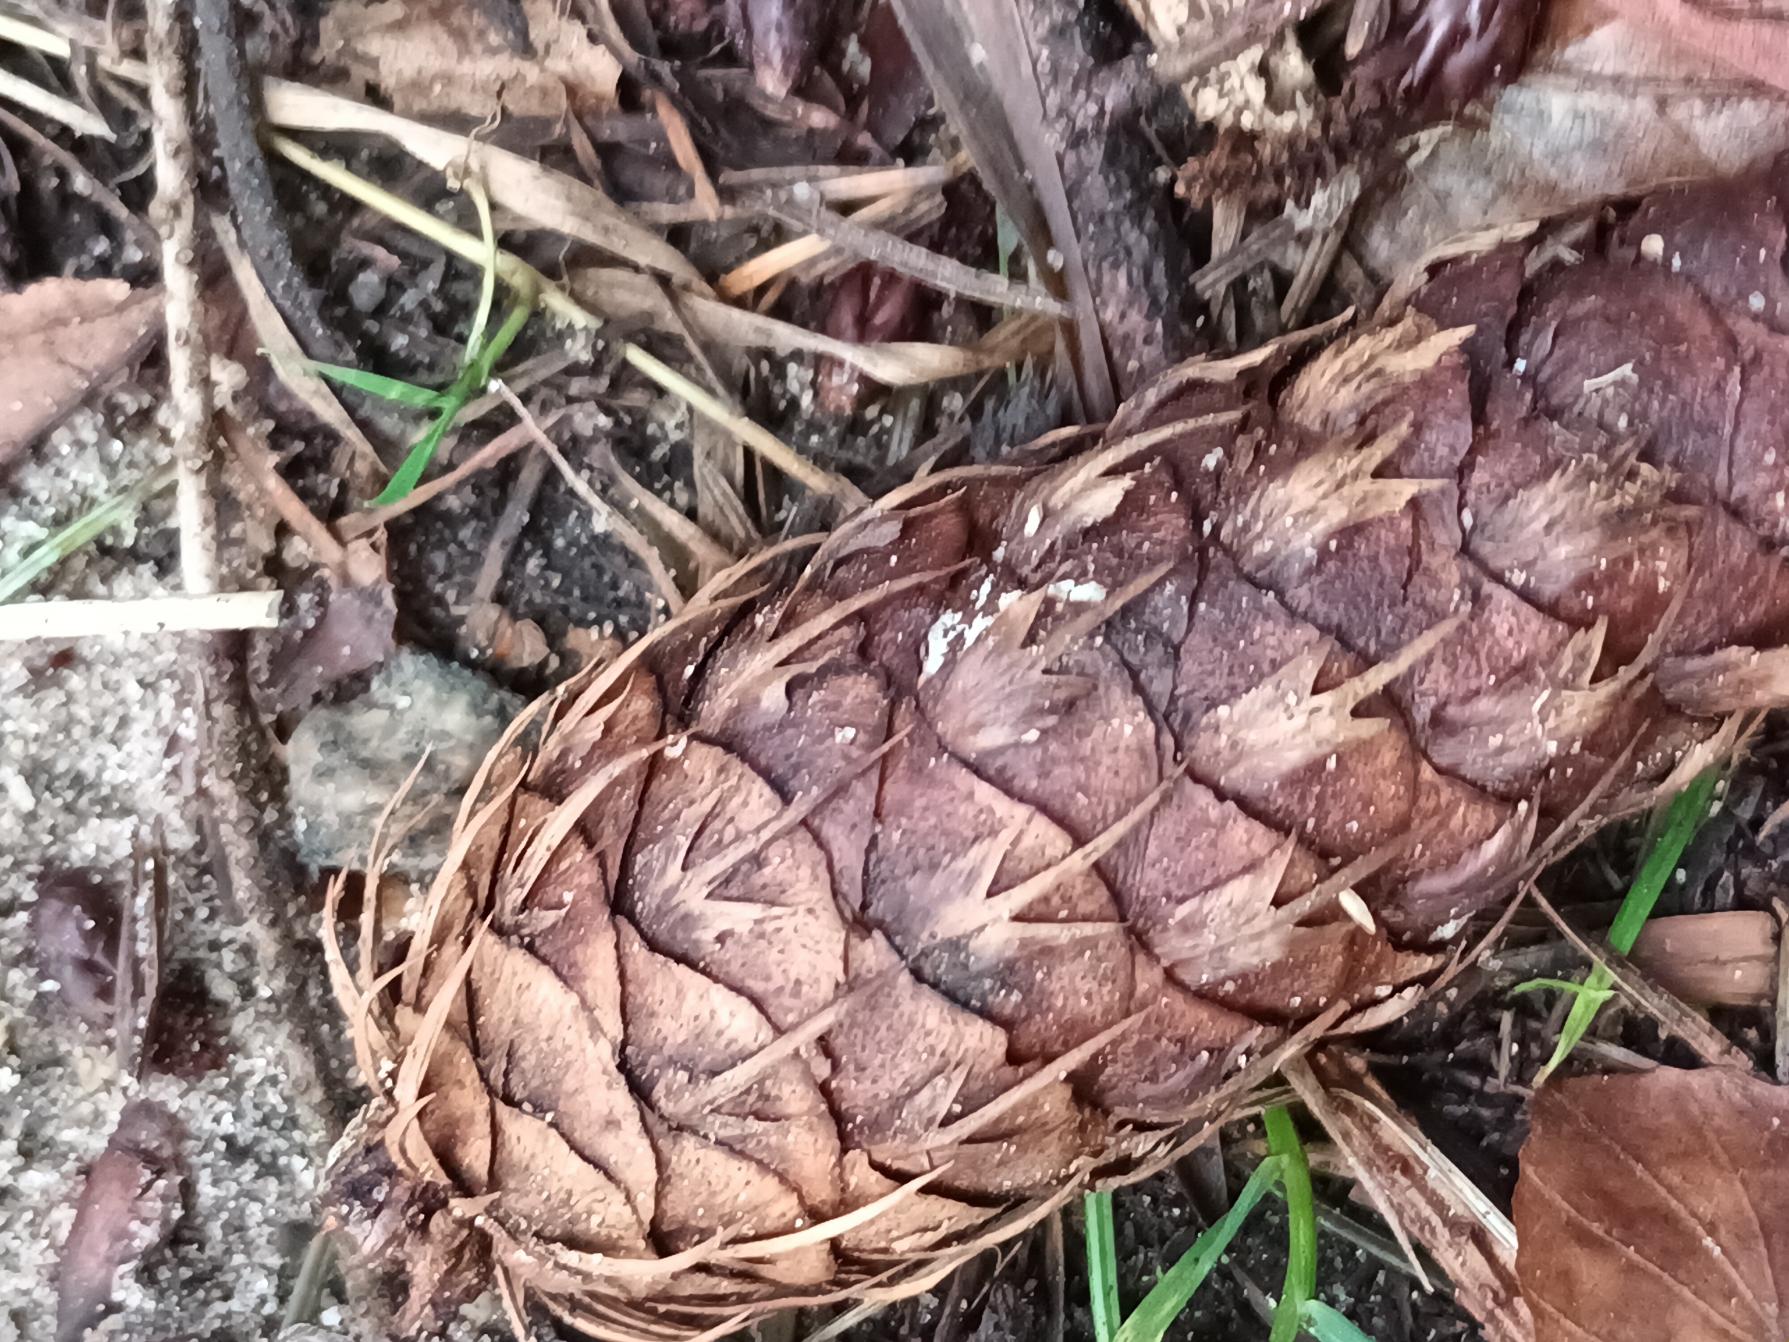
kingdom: Plantae
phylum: Tracheophyta
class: Pinopsida
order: Pinales
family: Pinaceae
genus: Pseudotsuga
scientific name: Pseudotsuga menziesii
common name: Douglasgran
